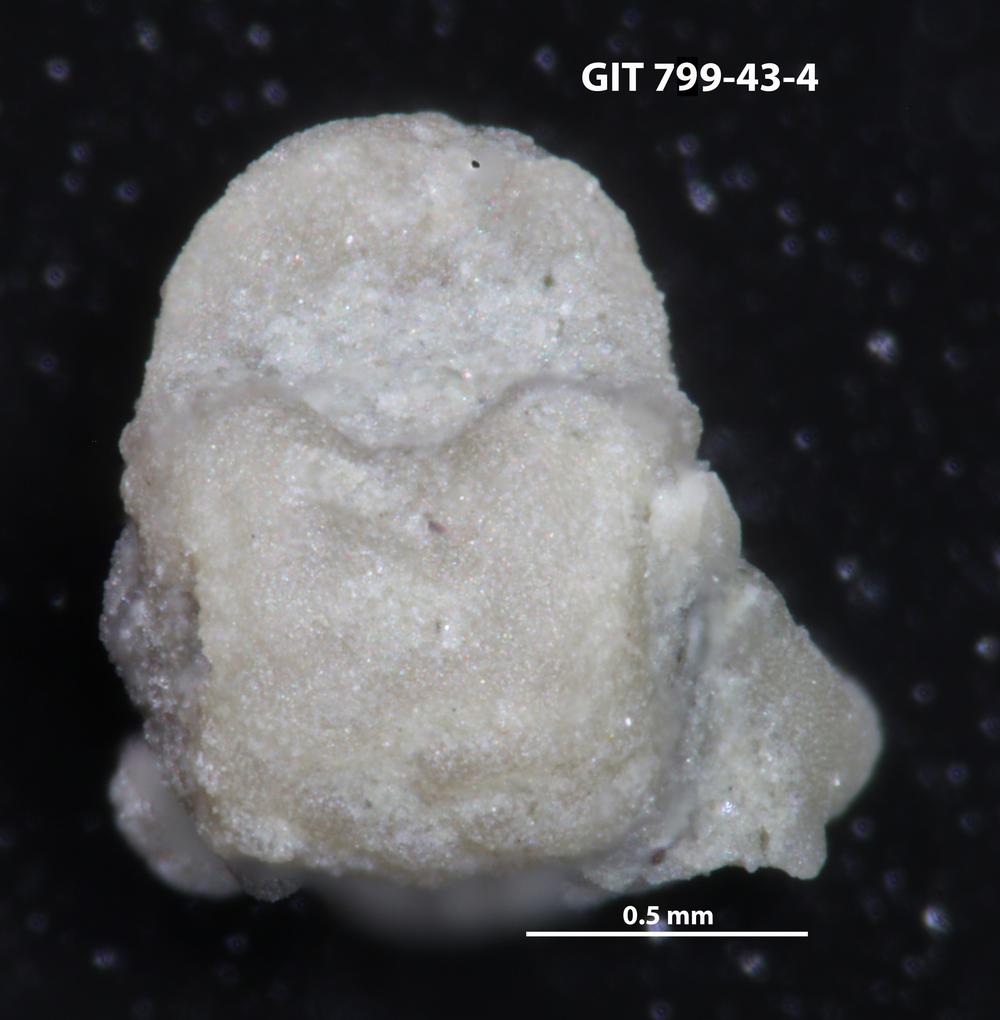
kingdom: Animalia
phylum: Echinodermata
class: Crinoidea
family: Cyclocystoididae
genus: Polytryphocycloides
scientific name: Polytryphocycloides
